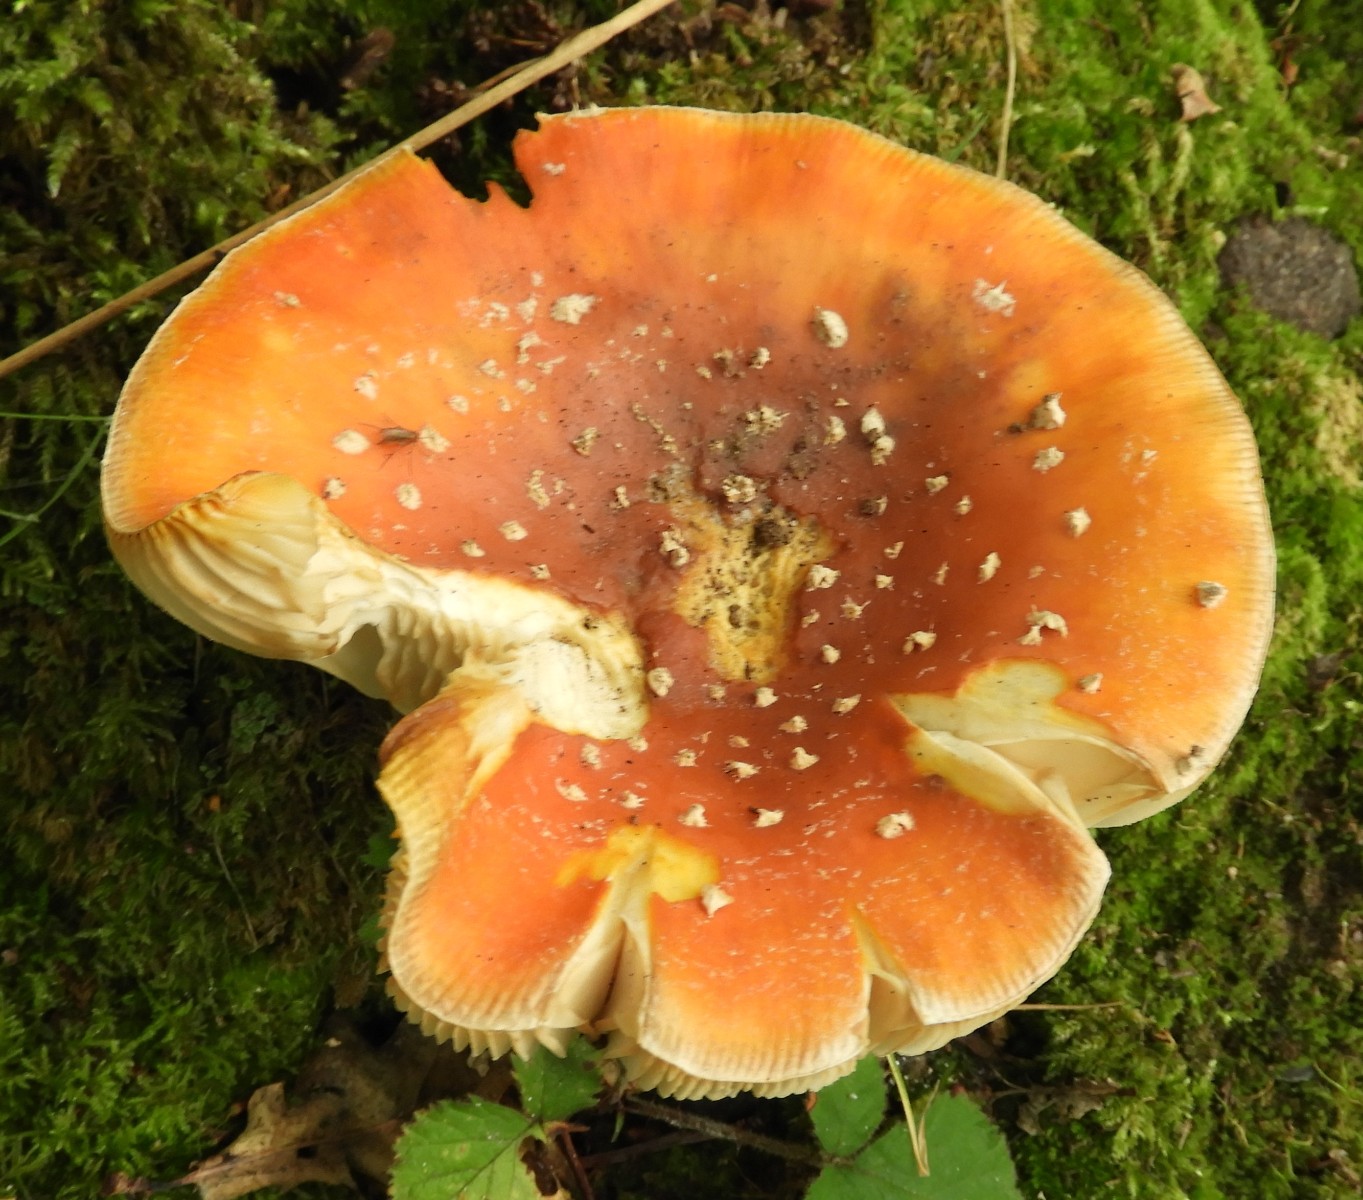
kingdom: Fungi
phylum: Basidiomycota
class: Agaricomycetes
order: Agaricales
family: Amanitaceae
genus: Amanita
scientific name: Amanita muscaria
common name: rød fluesvamp
